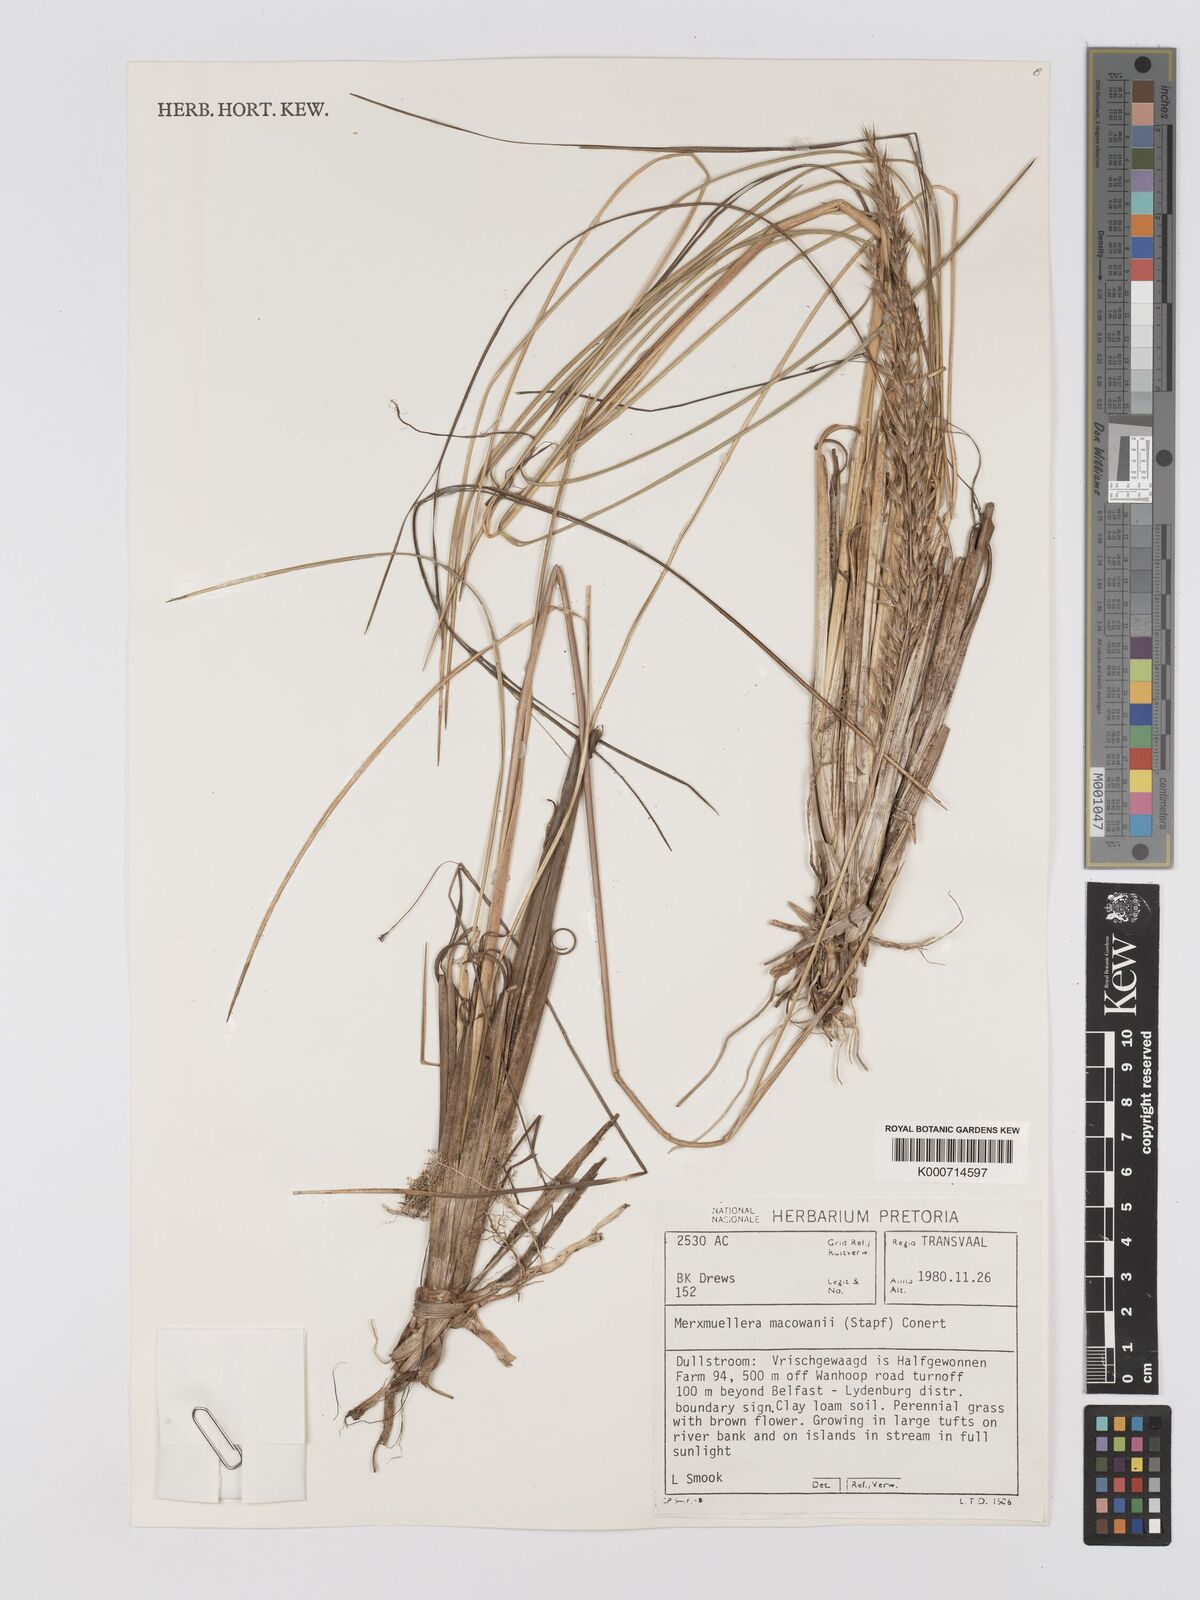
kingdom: Plantae
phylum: Tracheophyta
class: Liliopsida
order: Poales
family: Poaceae
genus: Rytidosperma
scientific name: Rytidosperma
